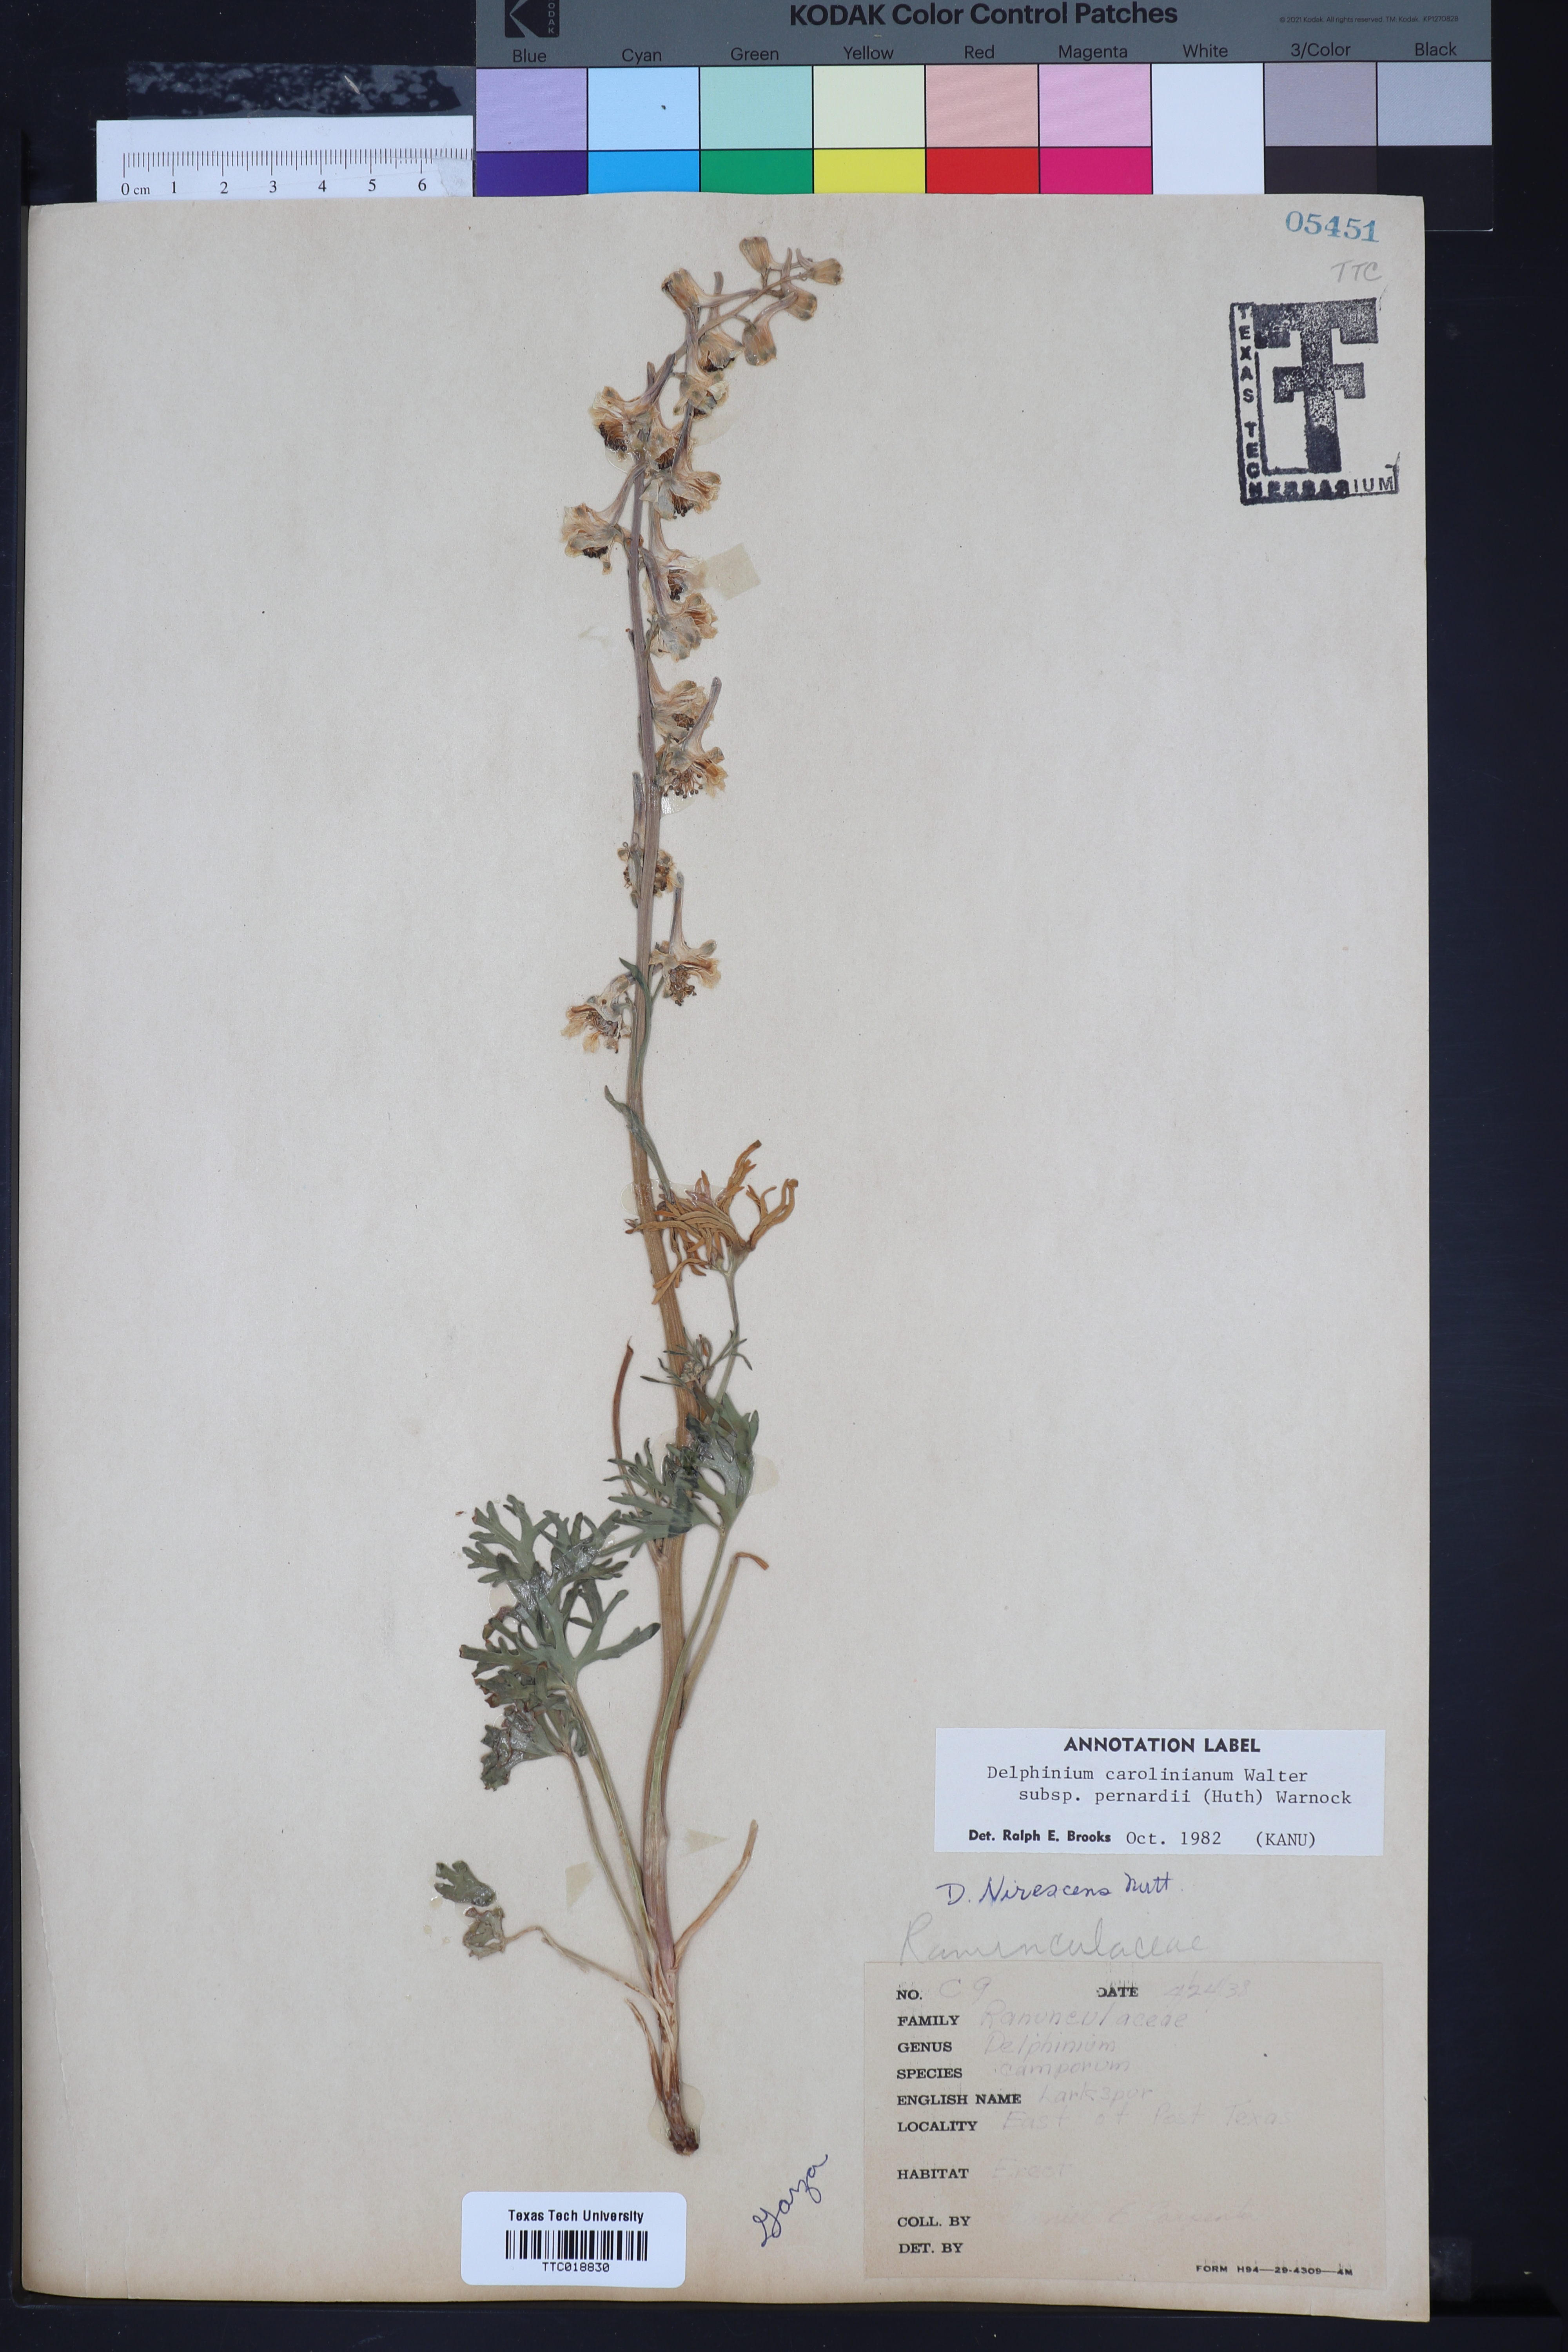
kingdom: Plantae
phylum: Tracheophyta
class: Magnoliopsida
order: Ranunculales
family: Ranunculaceae
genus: Delphinium
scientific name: Delphinium carolinianum
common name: Carolina larkspur
